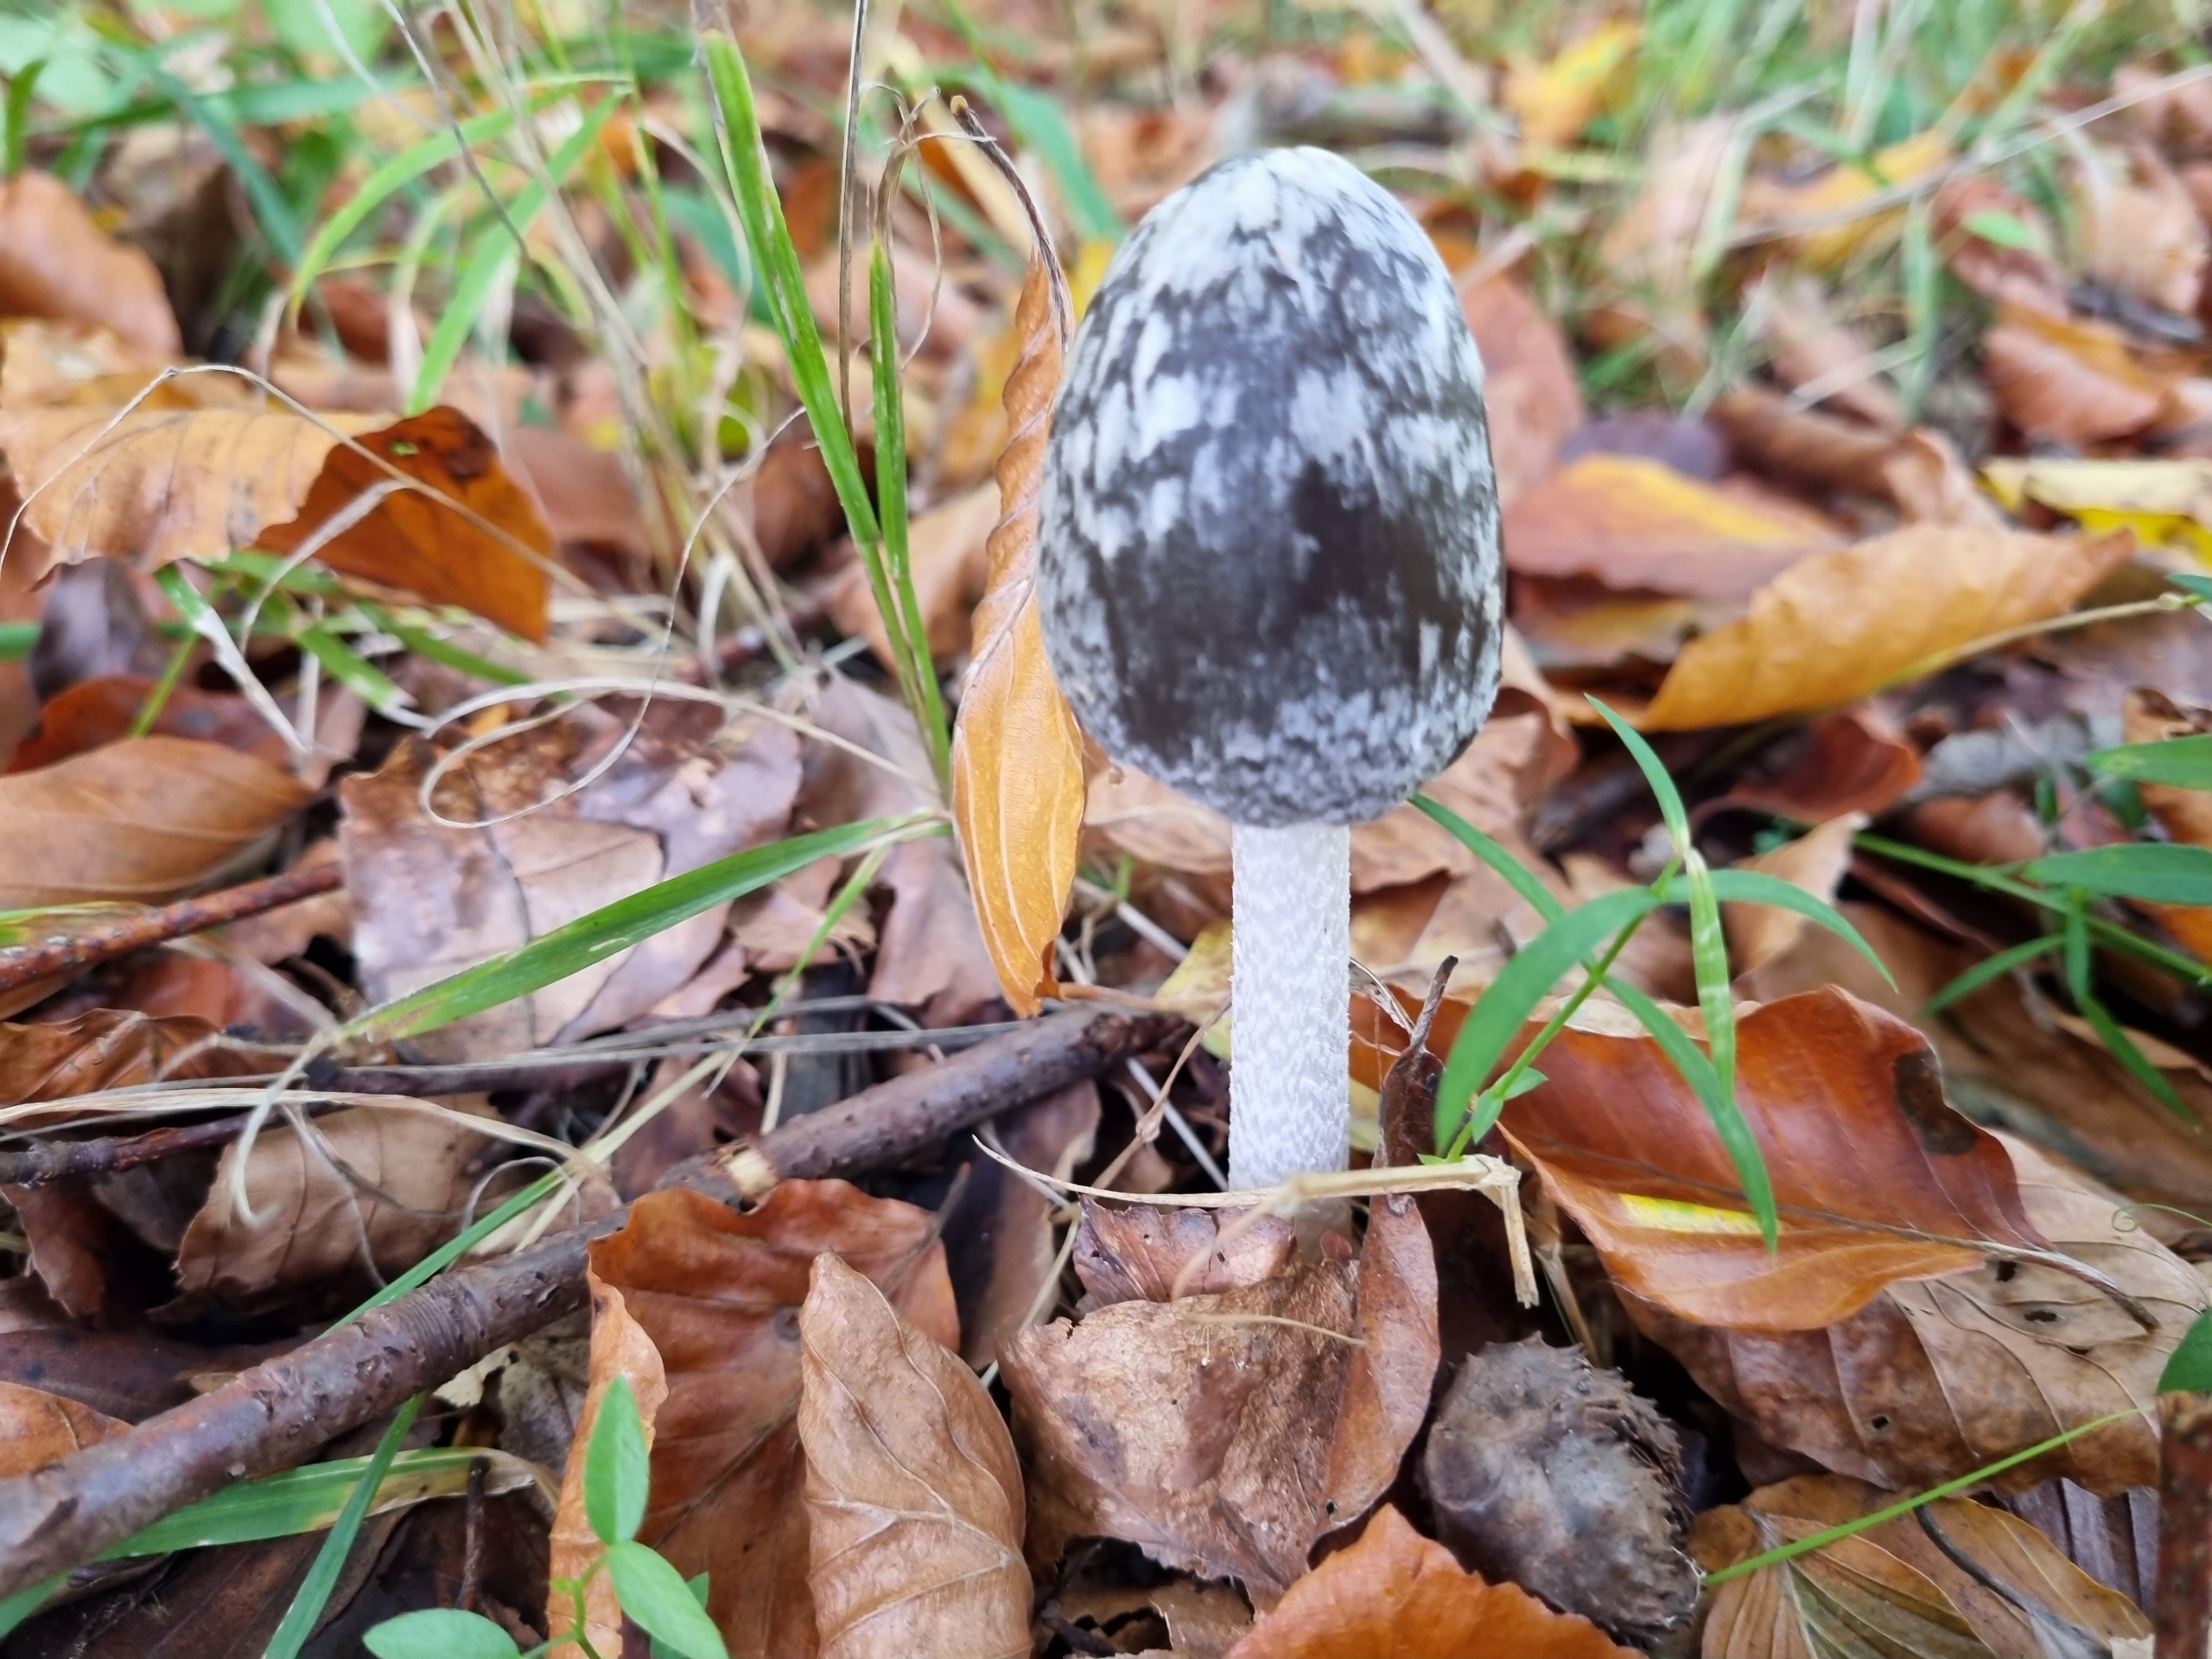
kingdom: Fungi
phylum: Basidiomycota
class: Agaricomycetes
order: Agaricales
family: Psathyrellaceae
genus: Coprinopsis
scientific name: Coprinopsis picacea
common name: Skade-blækhat
